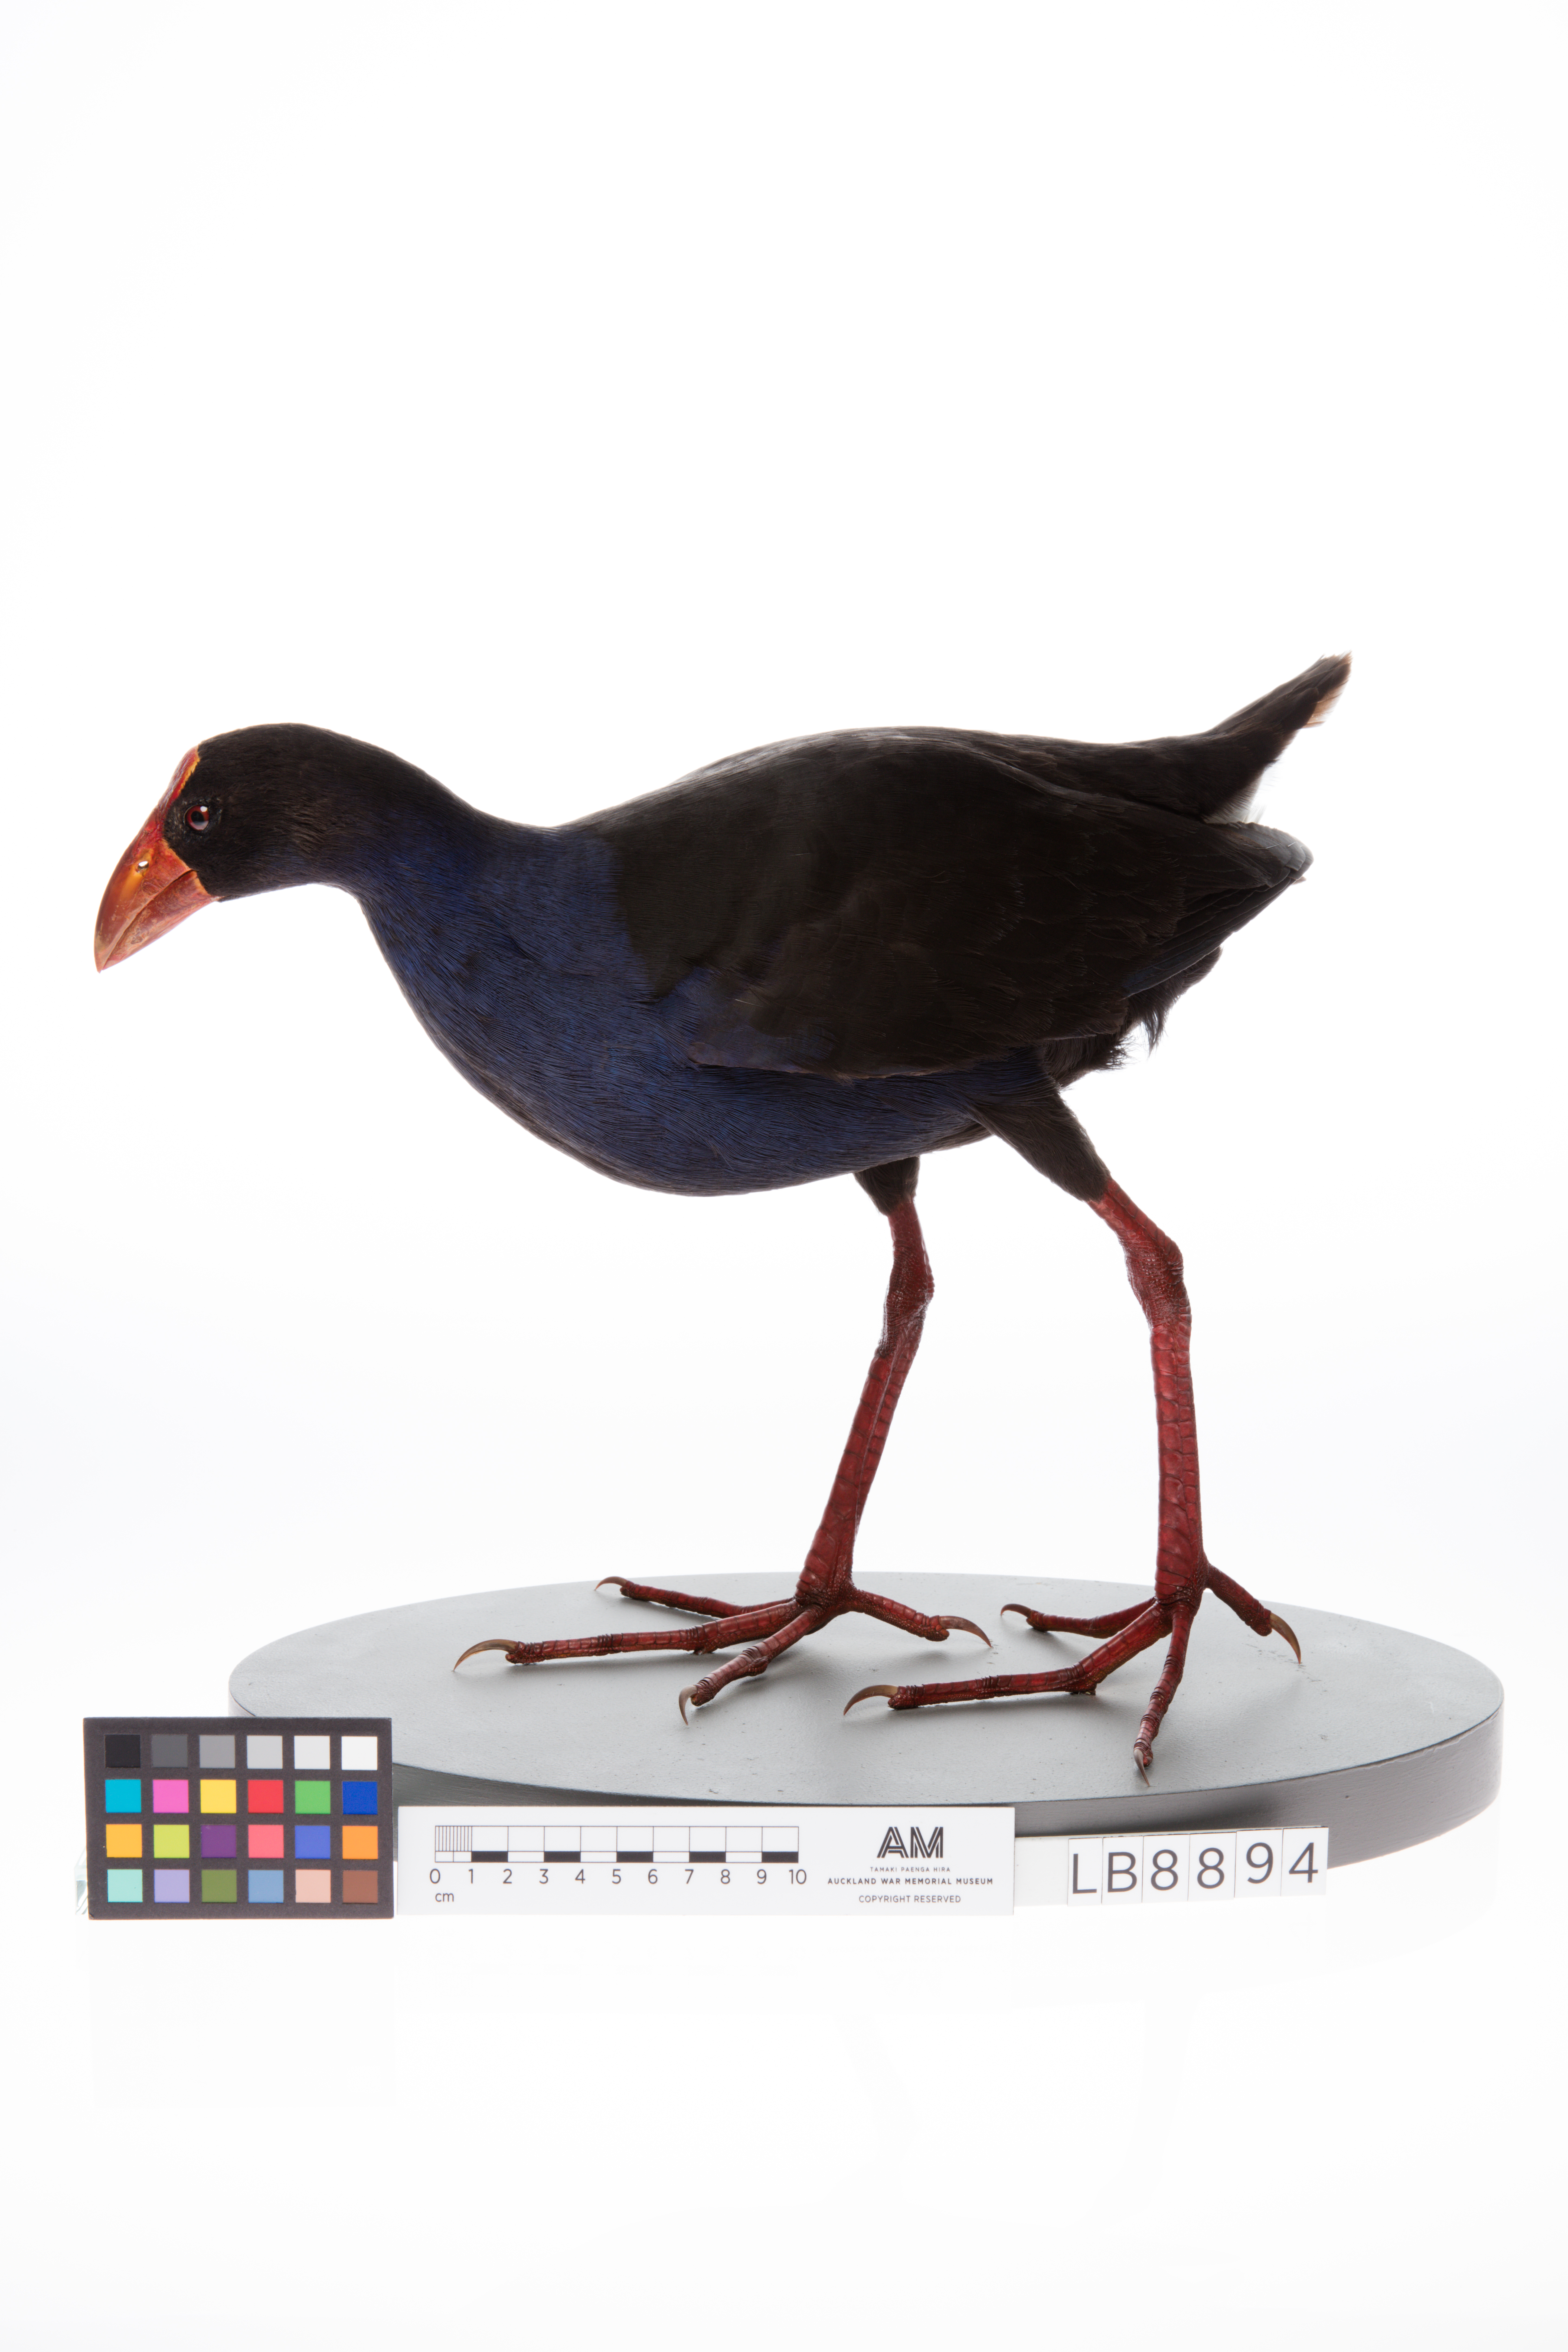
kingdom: Animalia
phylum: Chordata
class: Aves
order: Gruiformes
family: Rallidae
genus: Porphyrio
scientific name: Porphyrio melanotus
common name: Australasian swamphen
